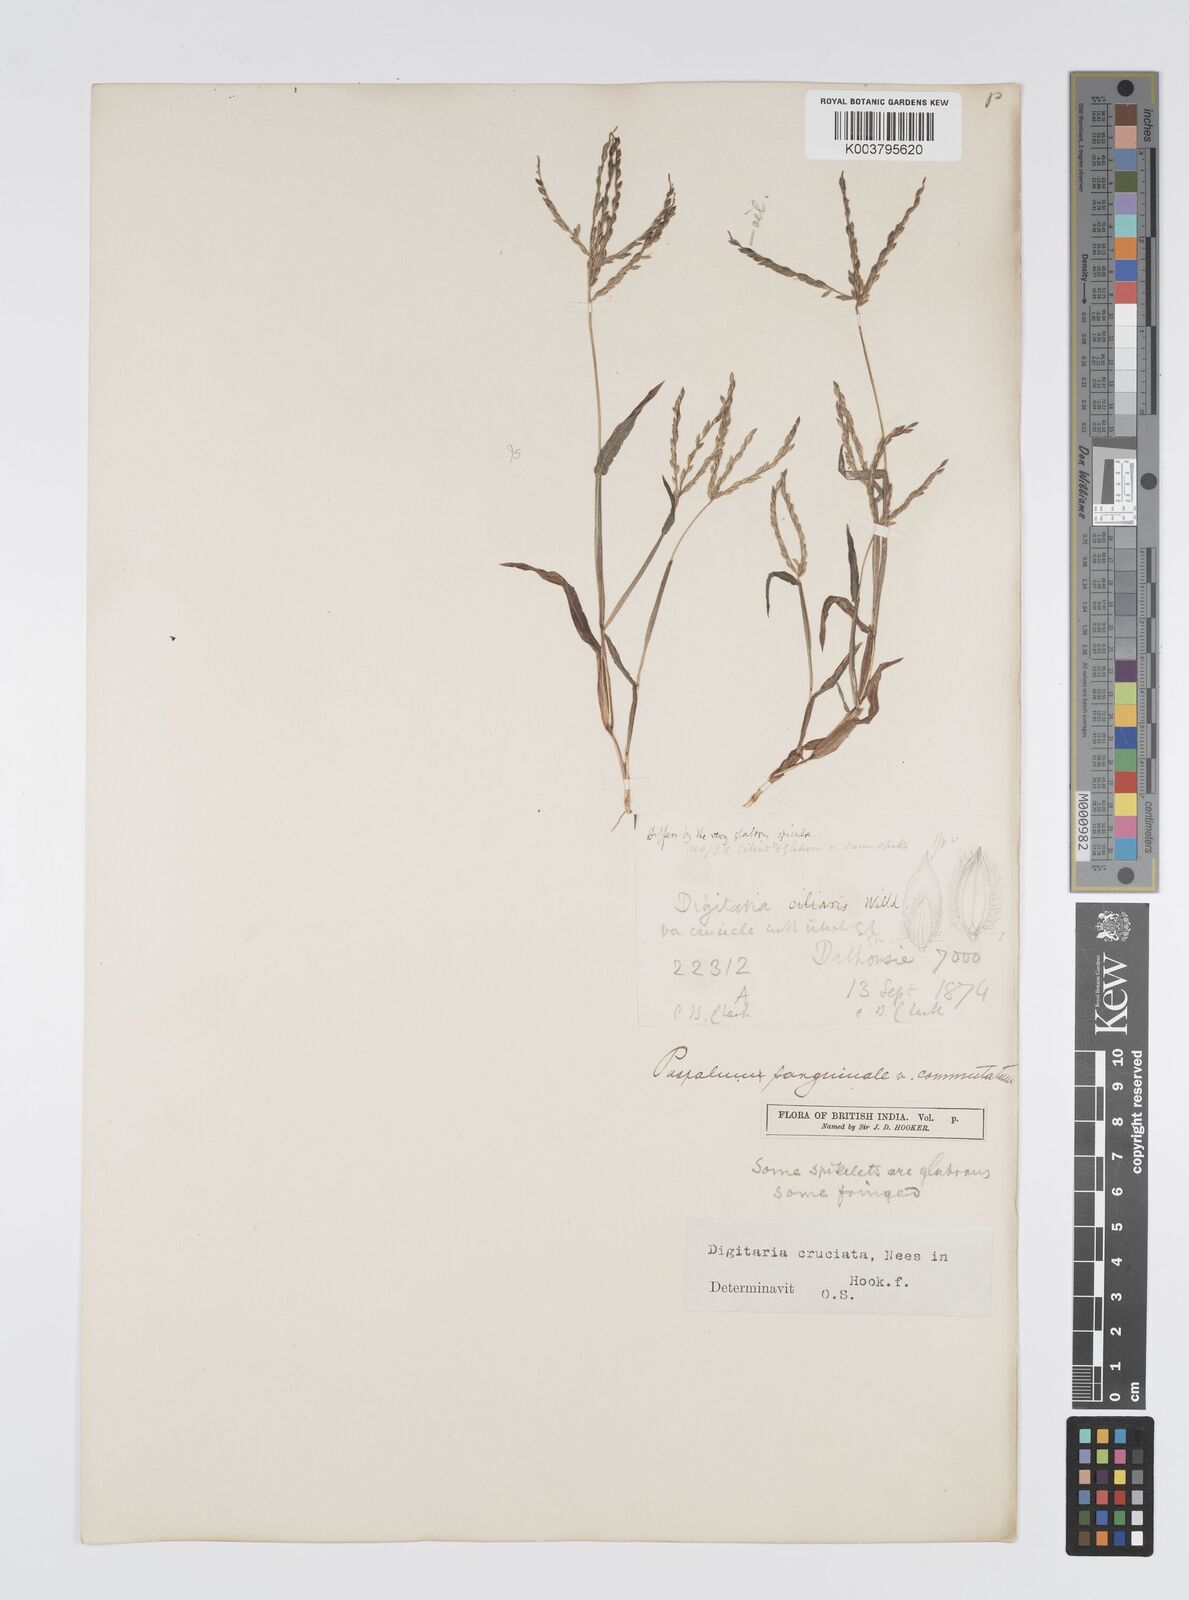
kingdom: Plantae
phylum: Tracheophyta
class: Liliopsida
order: Poales
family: Poaceae
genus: Digitaria
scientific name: Digitaria sanguinalis
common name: Hairy crabgrass
